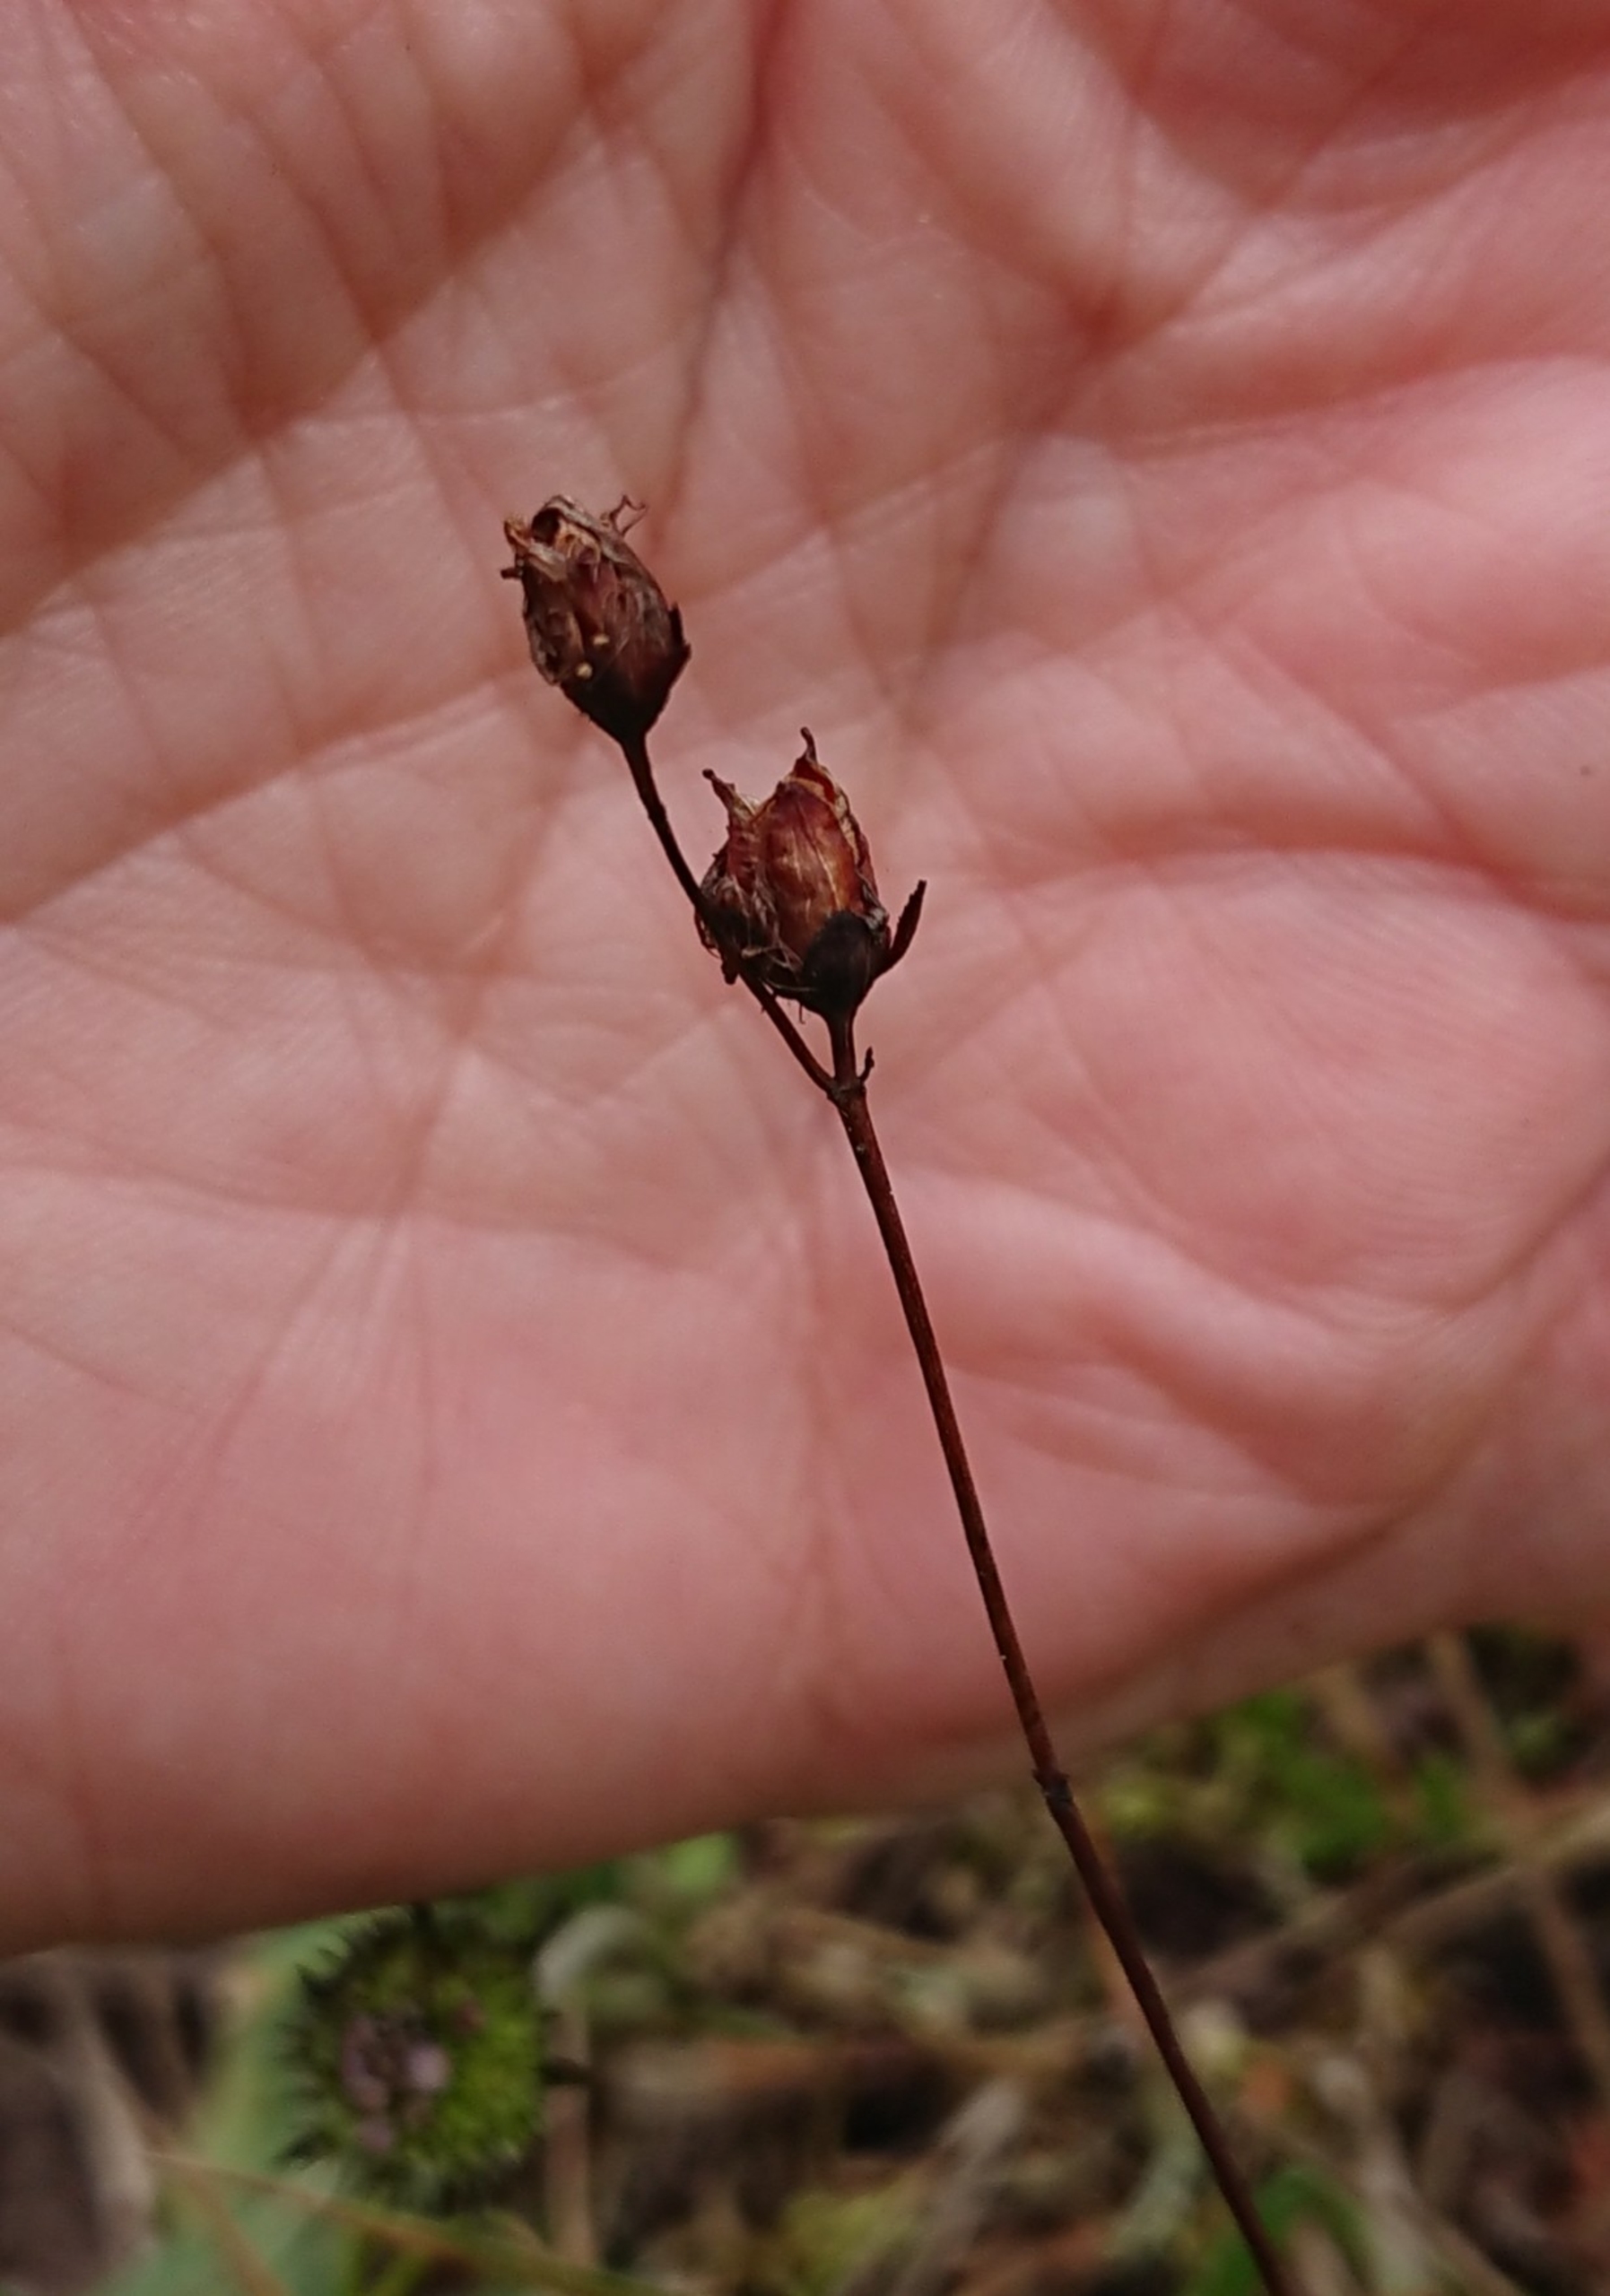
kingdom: Plantae
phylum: Tracheophyta
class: Magnoliopsida
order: Malpighiales
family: Hypericaceae
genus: Hypericum
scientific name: Hypericum pulchrum
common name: Smuk perikon
